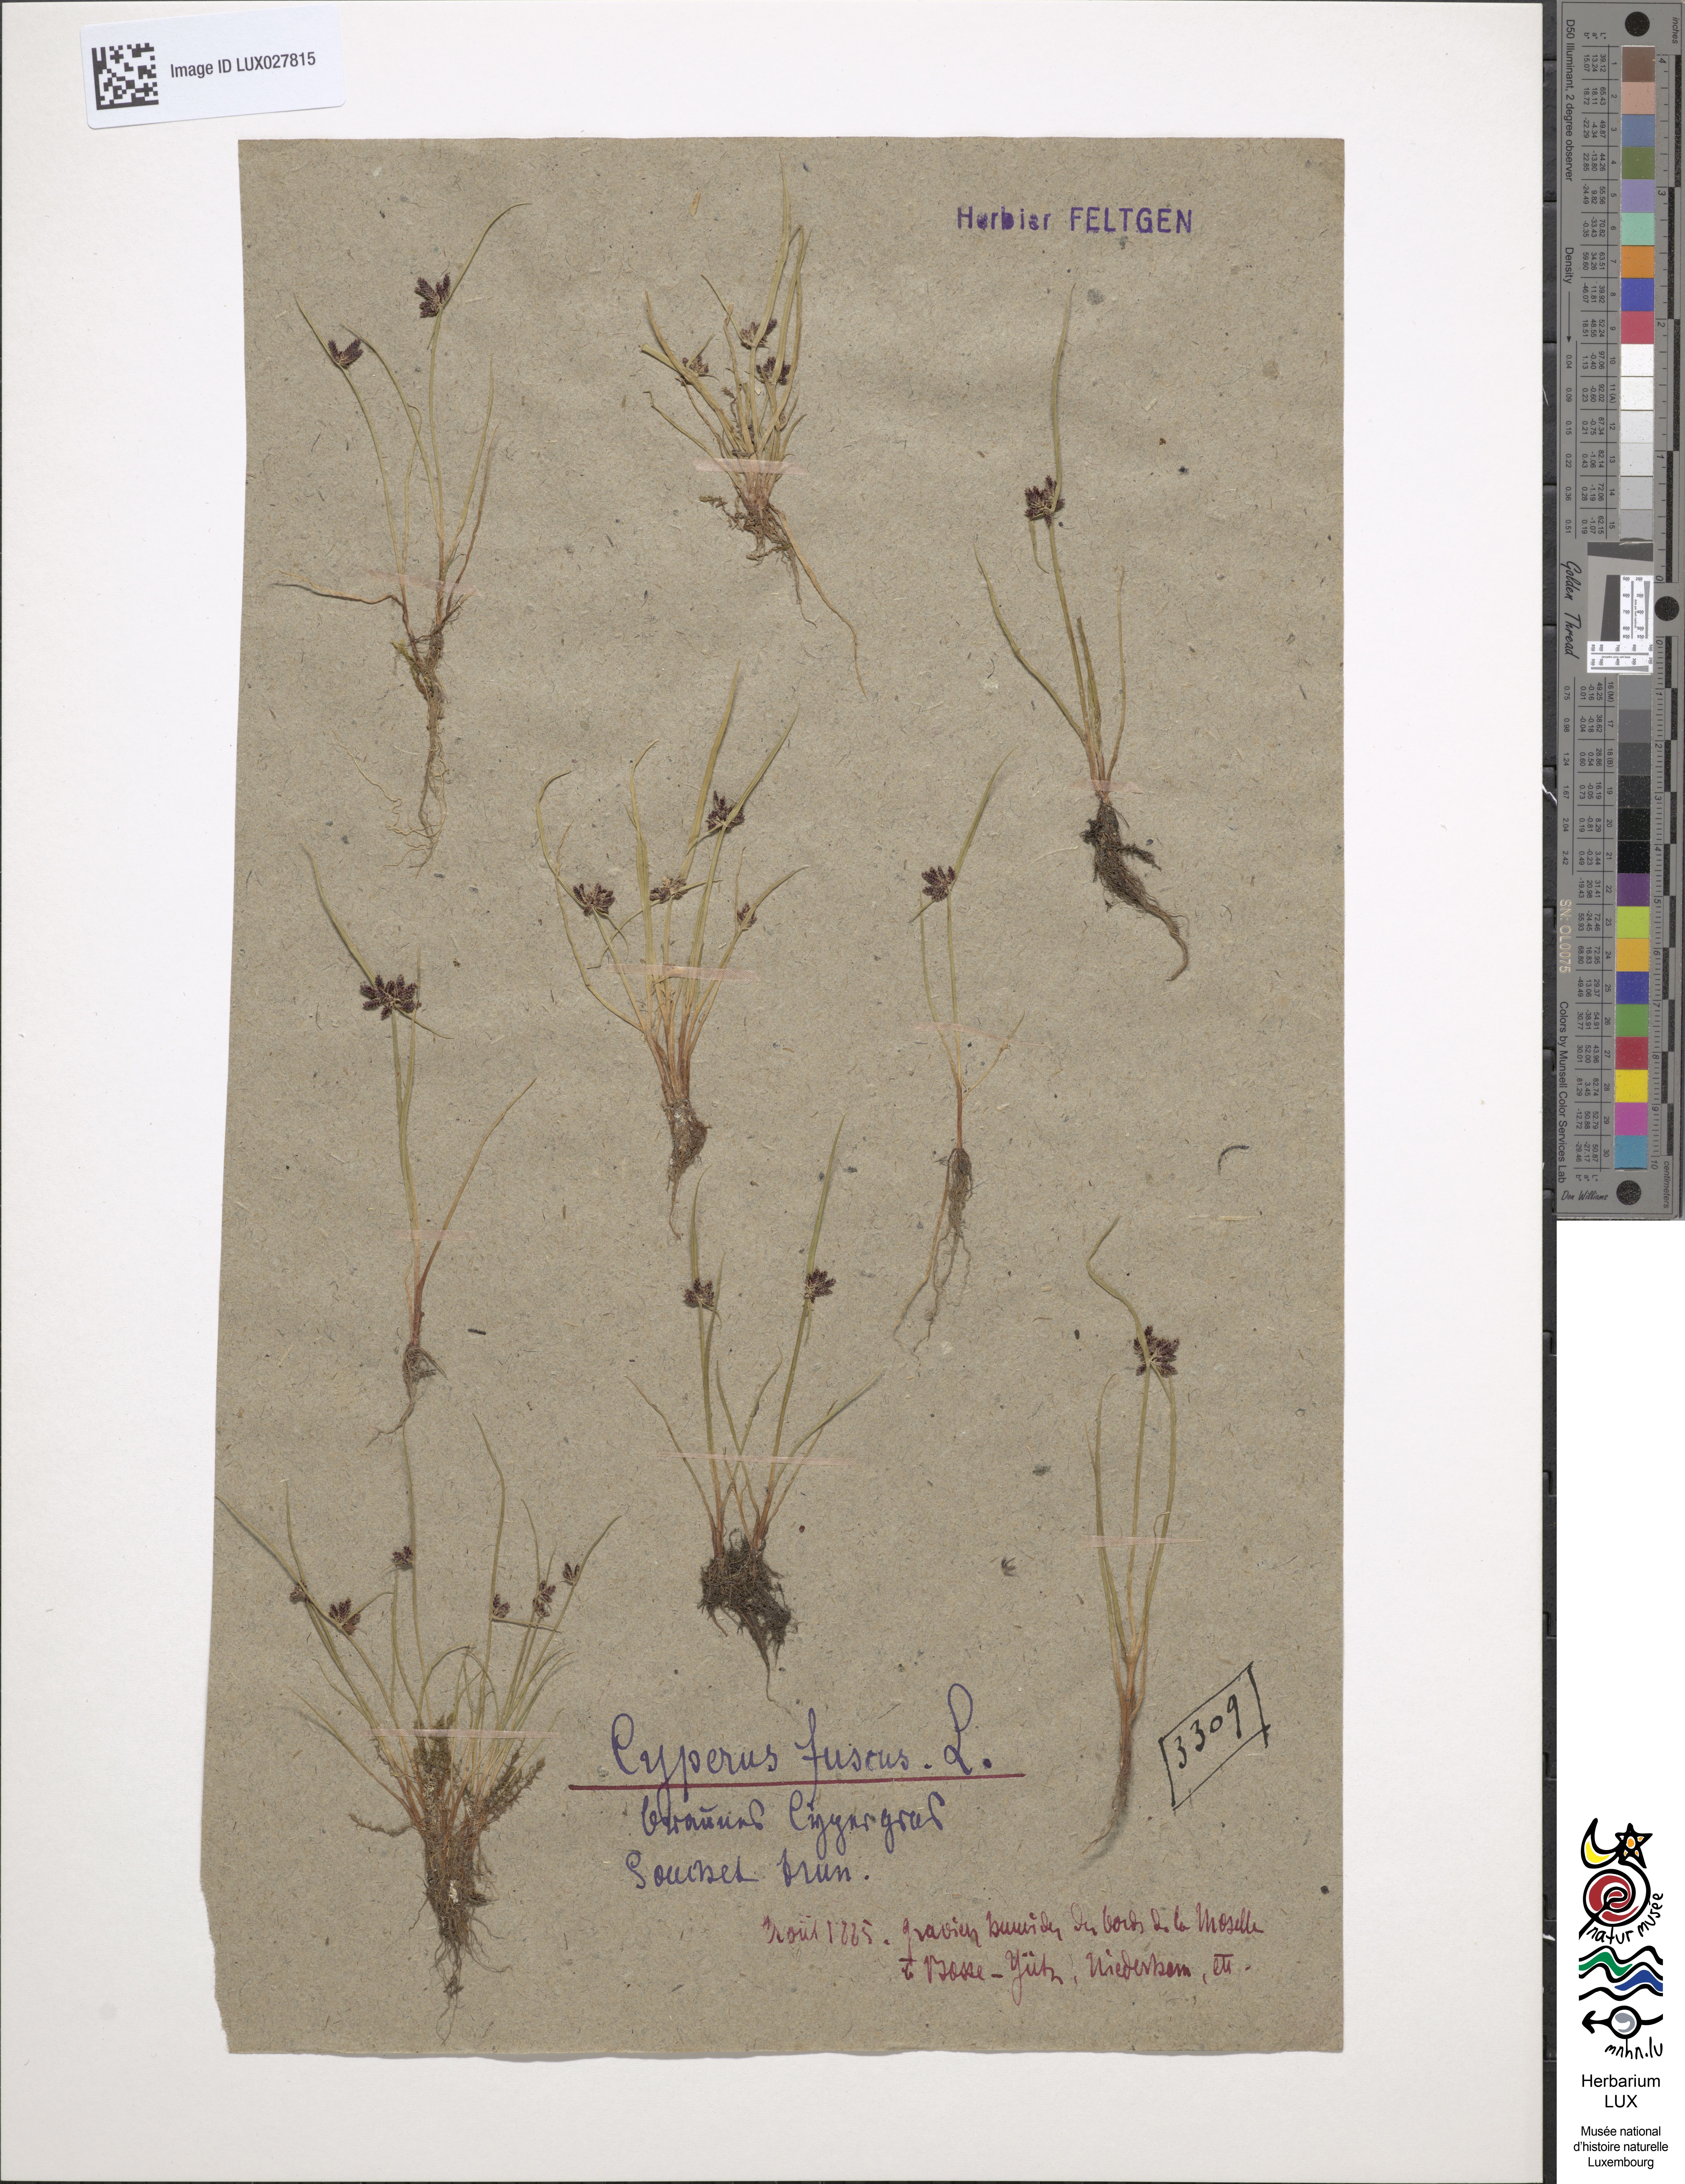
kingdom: Plantae
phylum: Tracheophyta
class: Liliopsida
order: Poales
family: Cyperaceae
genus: Cyperus
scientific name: Cyperus fuscus
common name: Brown galingale
